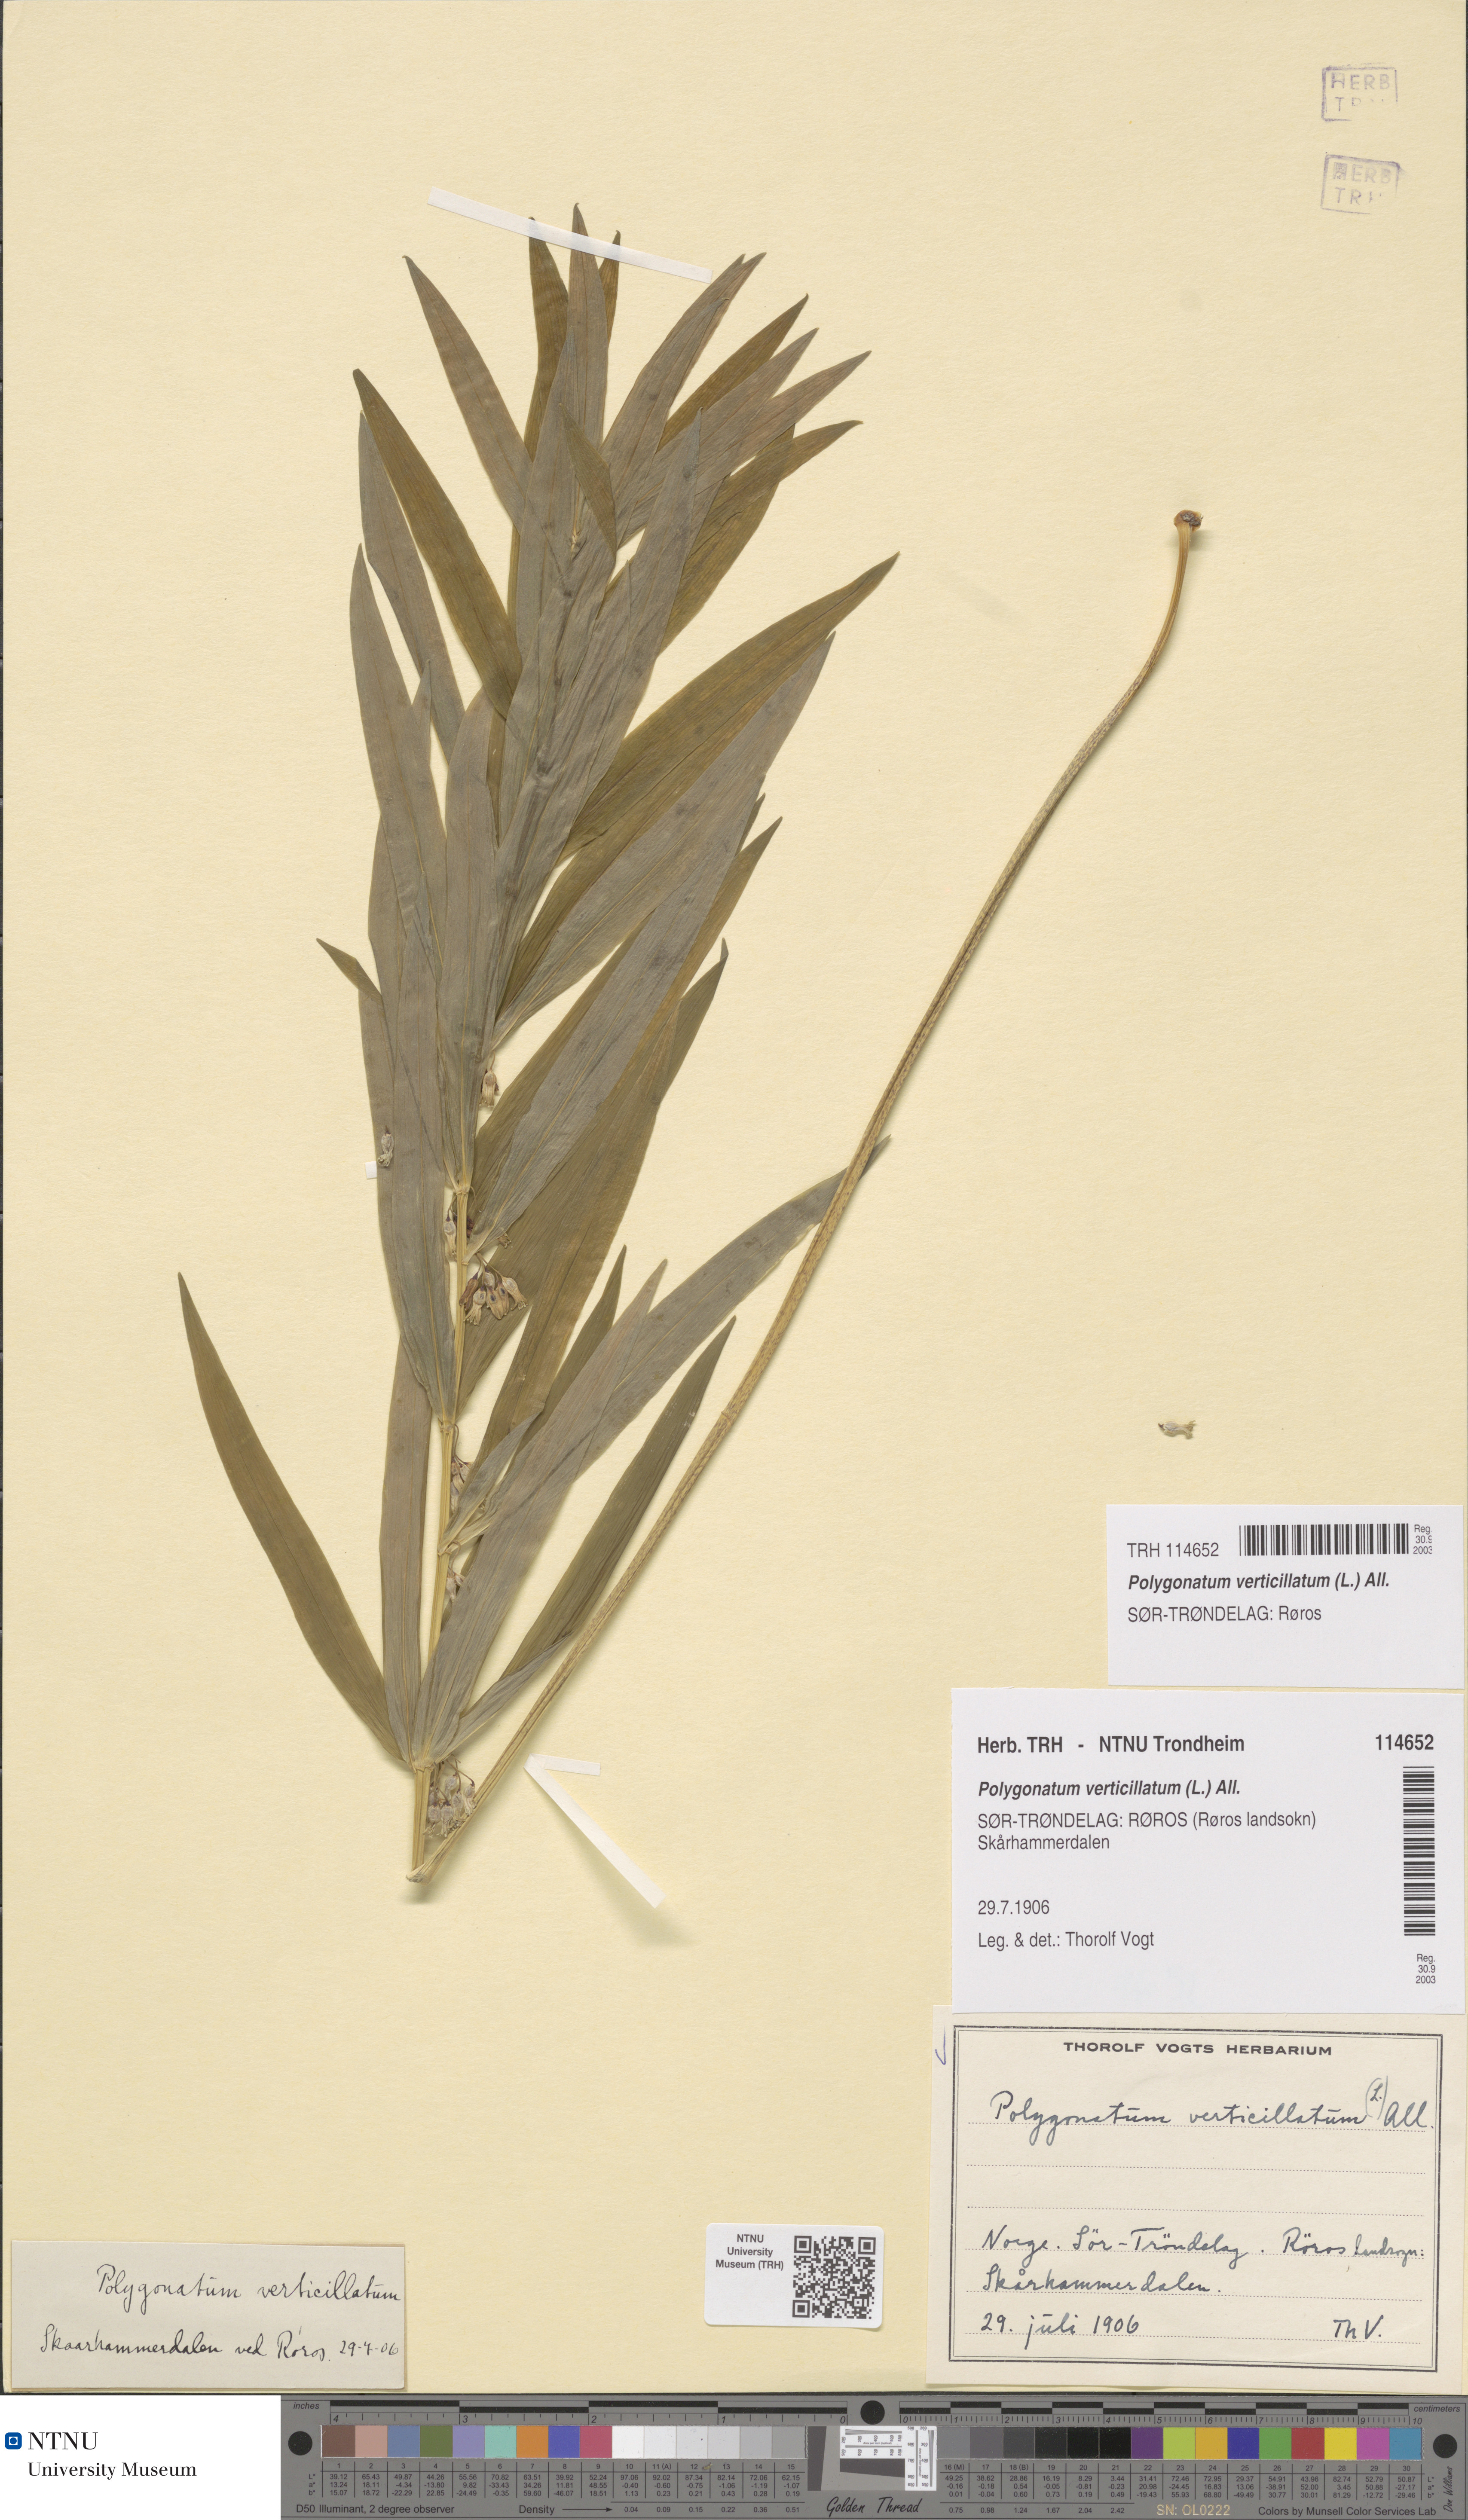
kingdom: Plantae
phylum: Tracheophyta
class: Liliopsida
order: Asparagales
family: Asparagaceae
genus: Polygonatum
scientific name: Polygonatum verticillatum
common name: Whorled solomon's-seal
